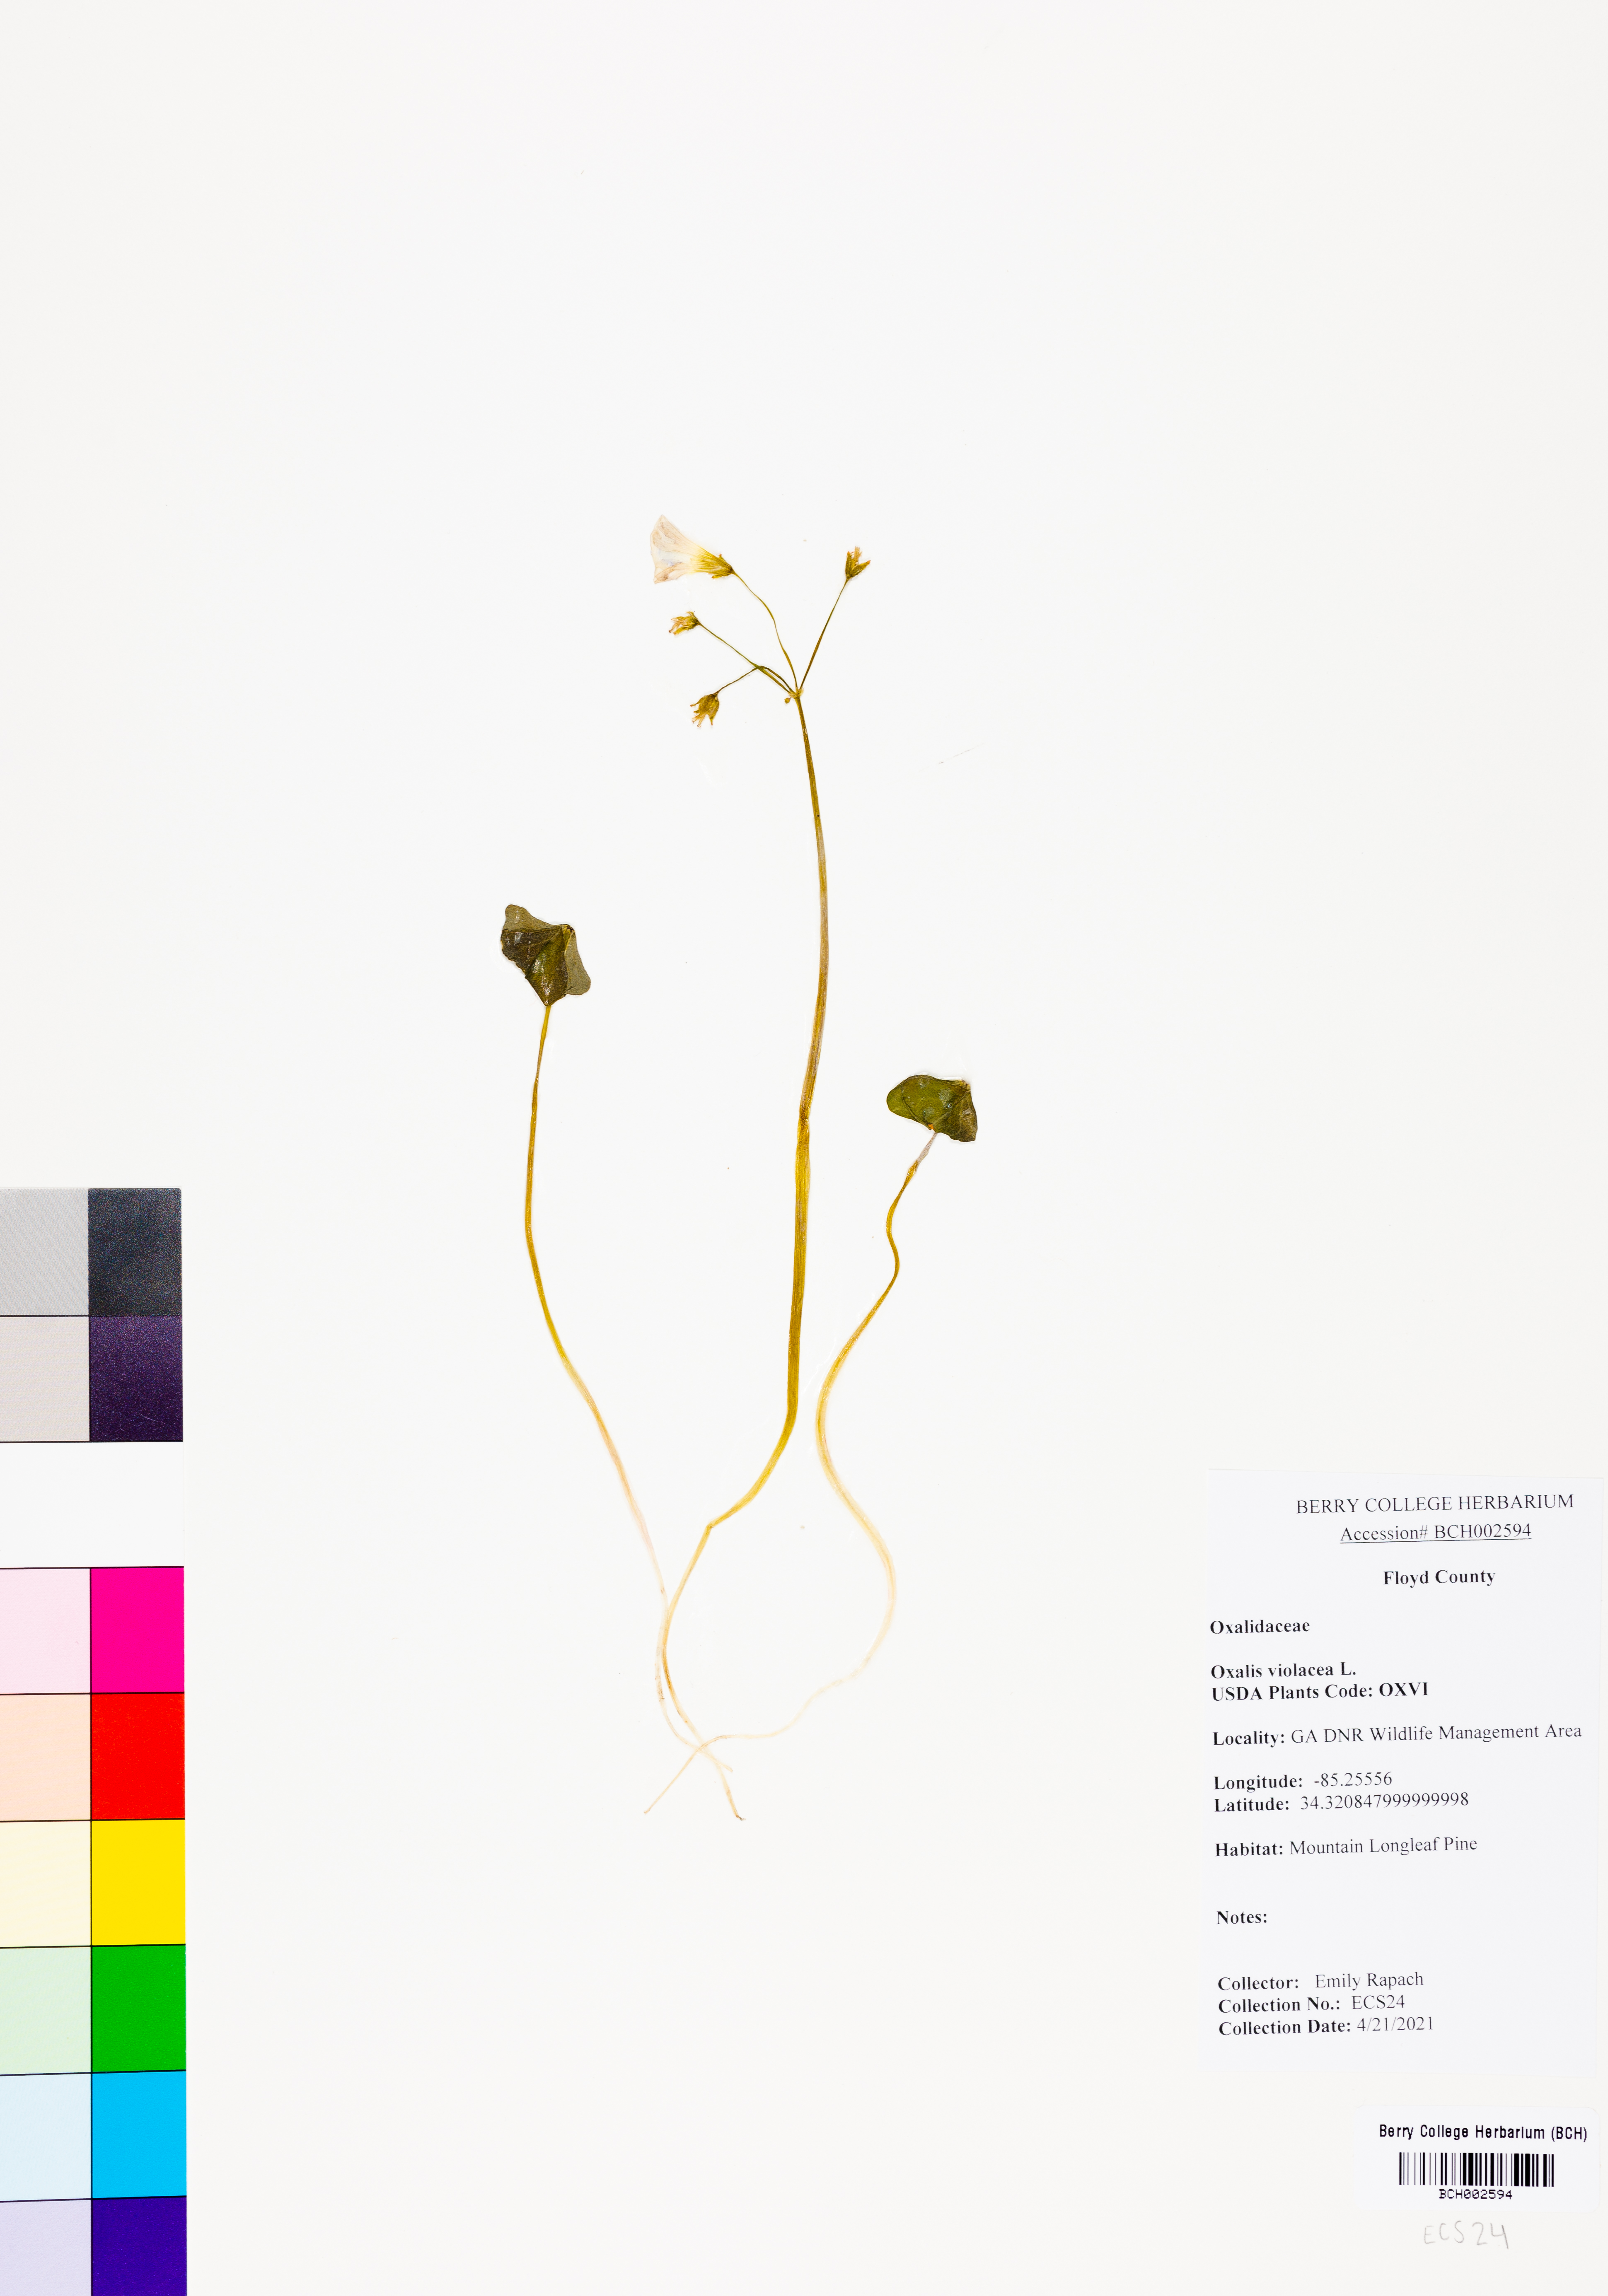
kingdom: Plantae
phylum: Tracheophyta
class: Magnoliopsida
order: Oxalidales
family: Oxalidaceae
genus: Oxalis
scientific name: Oxalis violacea
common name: Violet wood-sorrel
